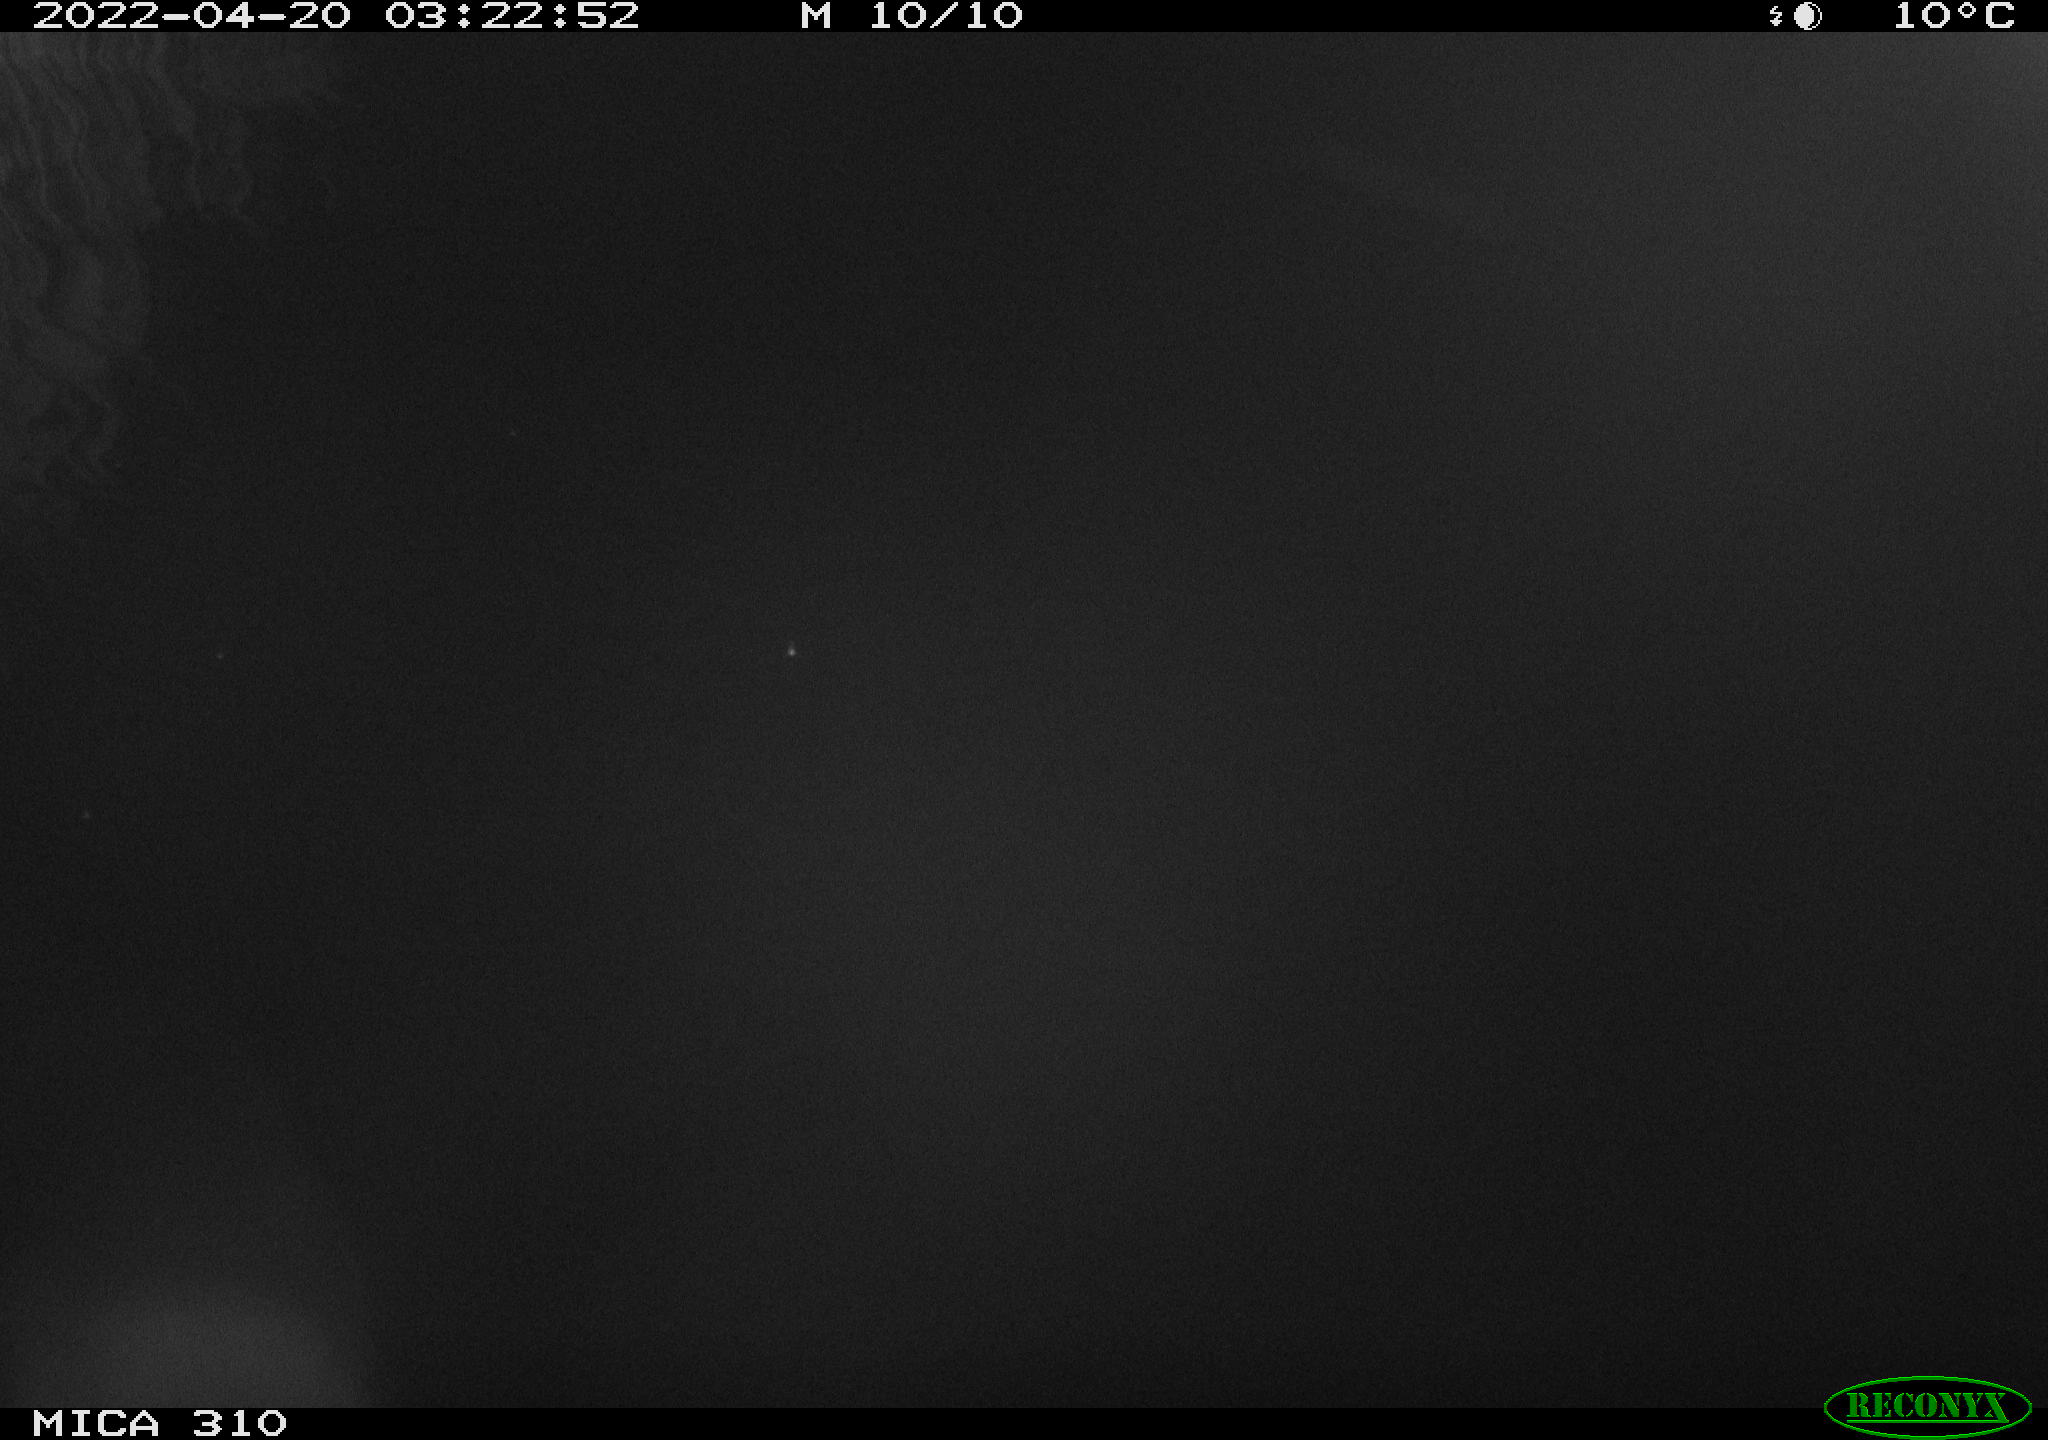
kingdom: Animalia
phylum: Chordata
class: Aves
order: Anseriformes
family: Anatidae
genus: Anas
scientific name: Anas platyrhynchos
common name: Mallard
